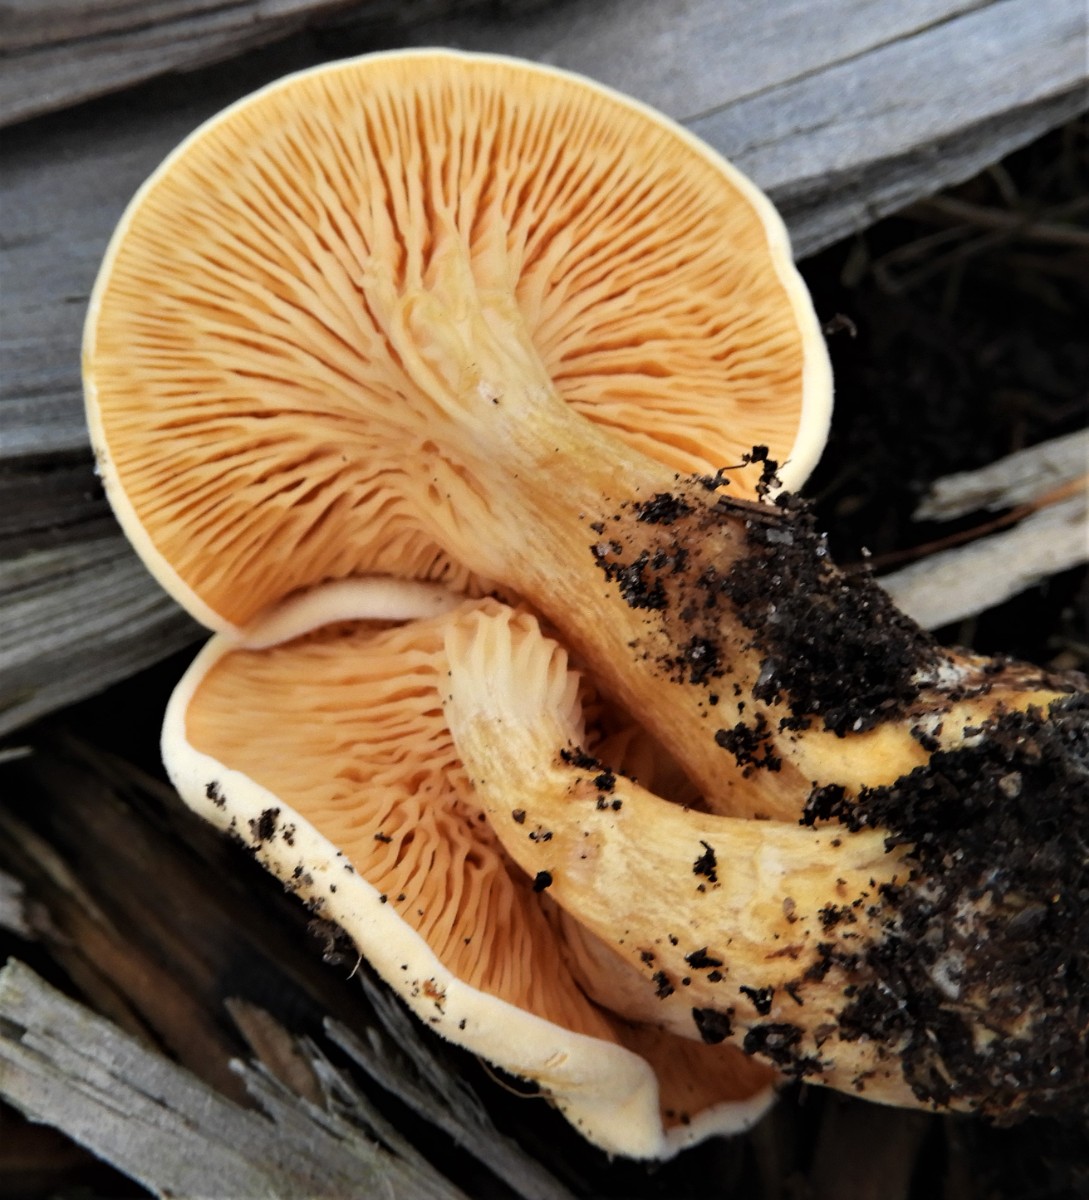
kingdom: Fungi
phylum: Basidiomycota
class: Agaricomycetes
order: Boletales
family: Hygrophoropsidaceae
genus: Hygrophoropsis
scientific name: Hygrophoropsis aurantiaca
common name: almindelig orangekantarel
